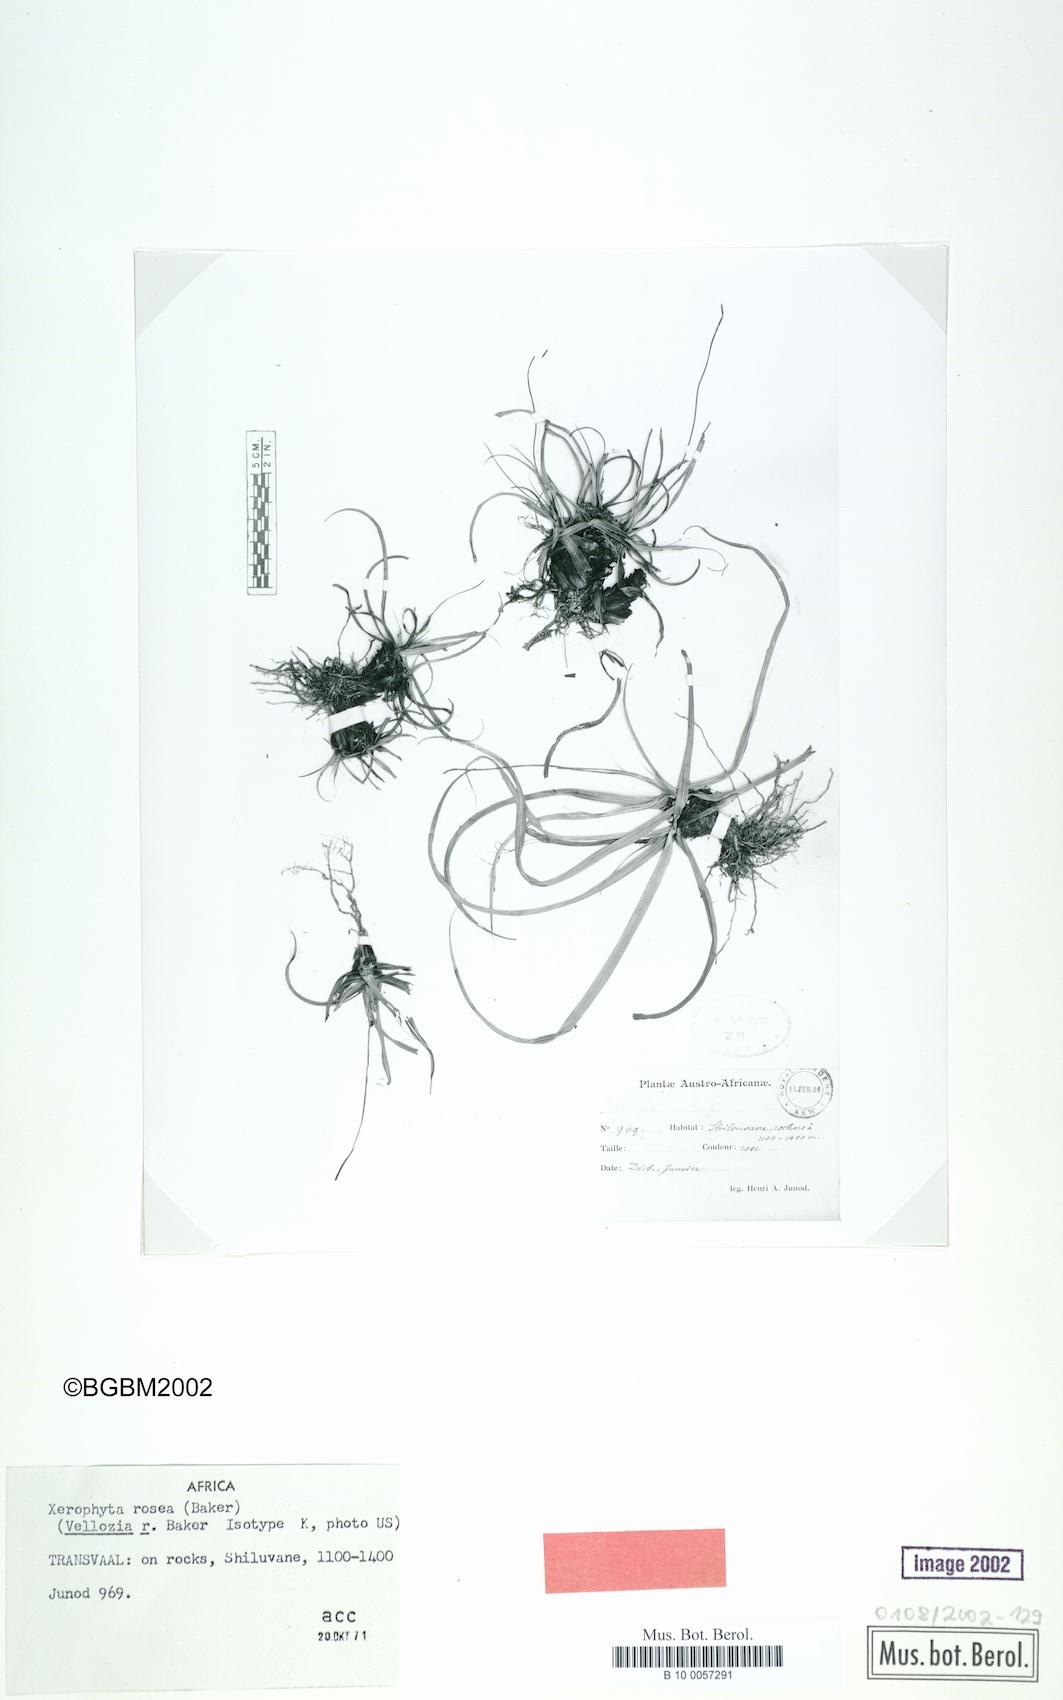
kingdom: Plantae
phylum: Tracheophyta
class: Liliopsida
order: Pandanales
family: Velloziaceae
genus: Xerophyta
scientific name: Xerophyta rosea
